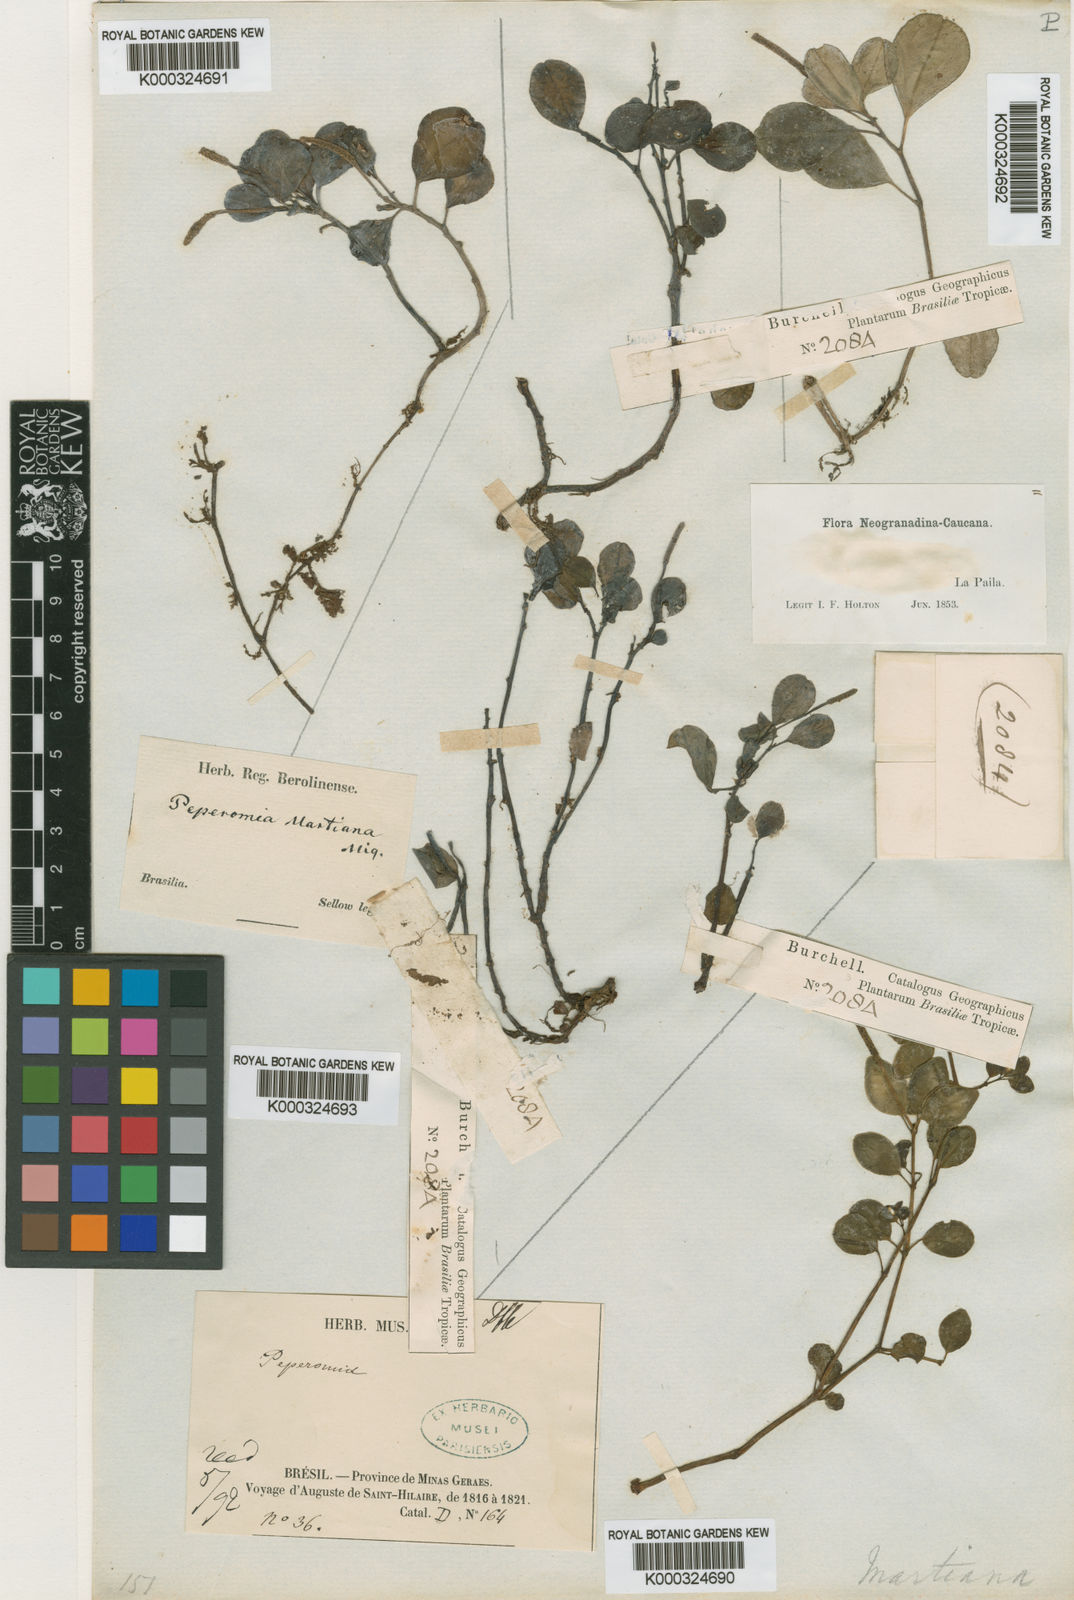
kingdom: Plantae
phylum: Tracheophyta
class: Magnoliopsida
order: Piperales
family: Piperaceae
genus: Peperomia
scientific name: Peperomia martiana
